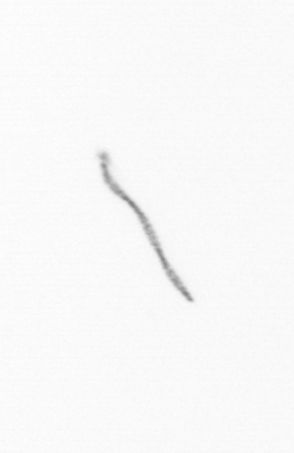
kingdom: Chromista
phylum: Ochrophyta
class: Bacillariophyceae
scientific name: Bacillariophyceae
